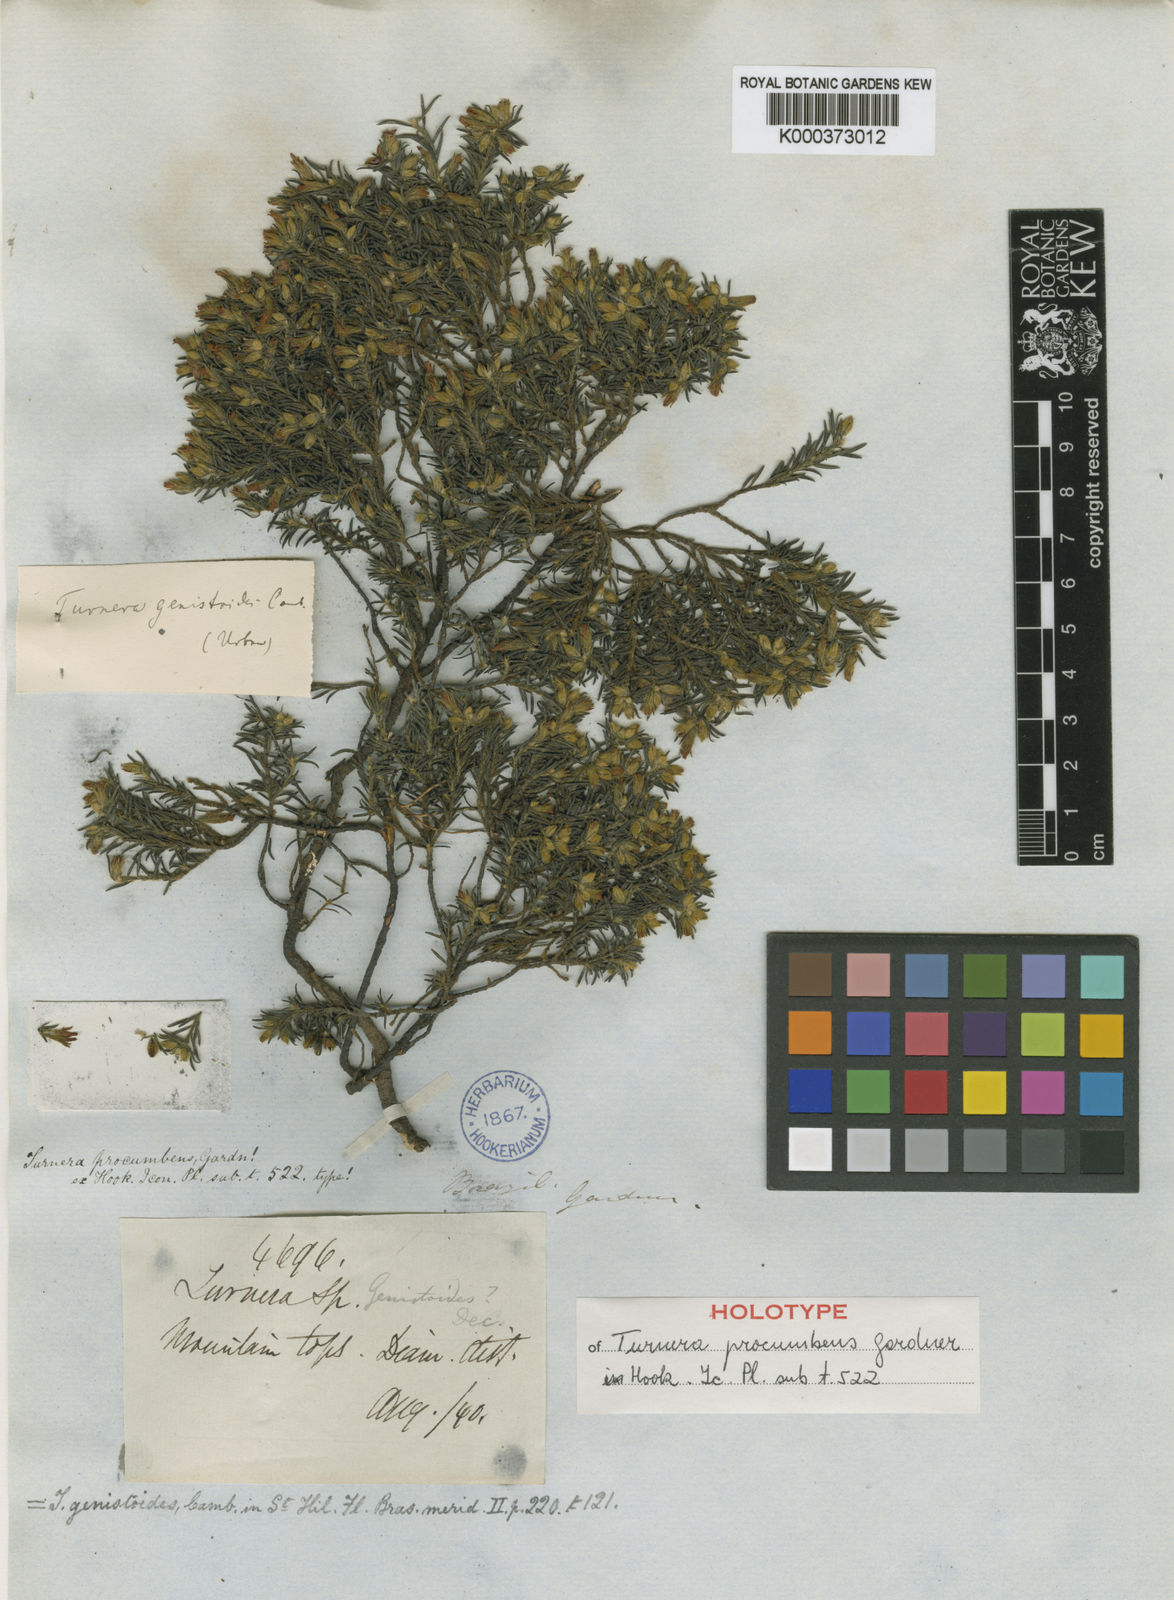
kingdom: Plantae
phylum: Tracheophyta
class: Magnoliopsida
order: Malpighiales
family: Turneraceae
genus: Turnera
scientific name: Turnera genistoides
